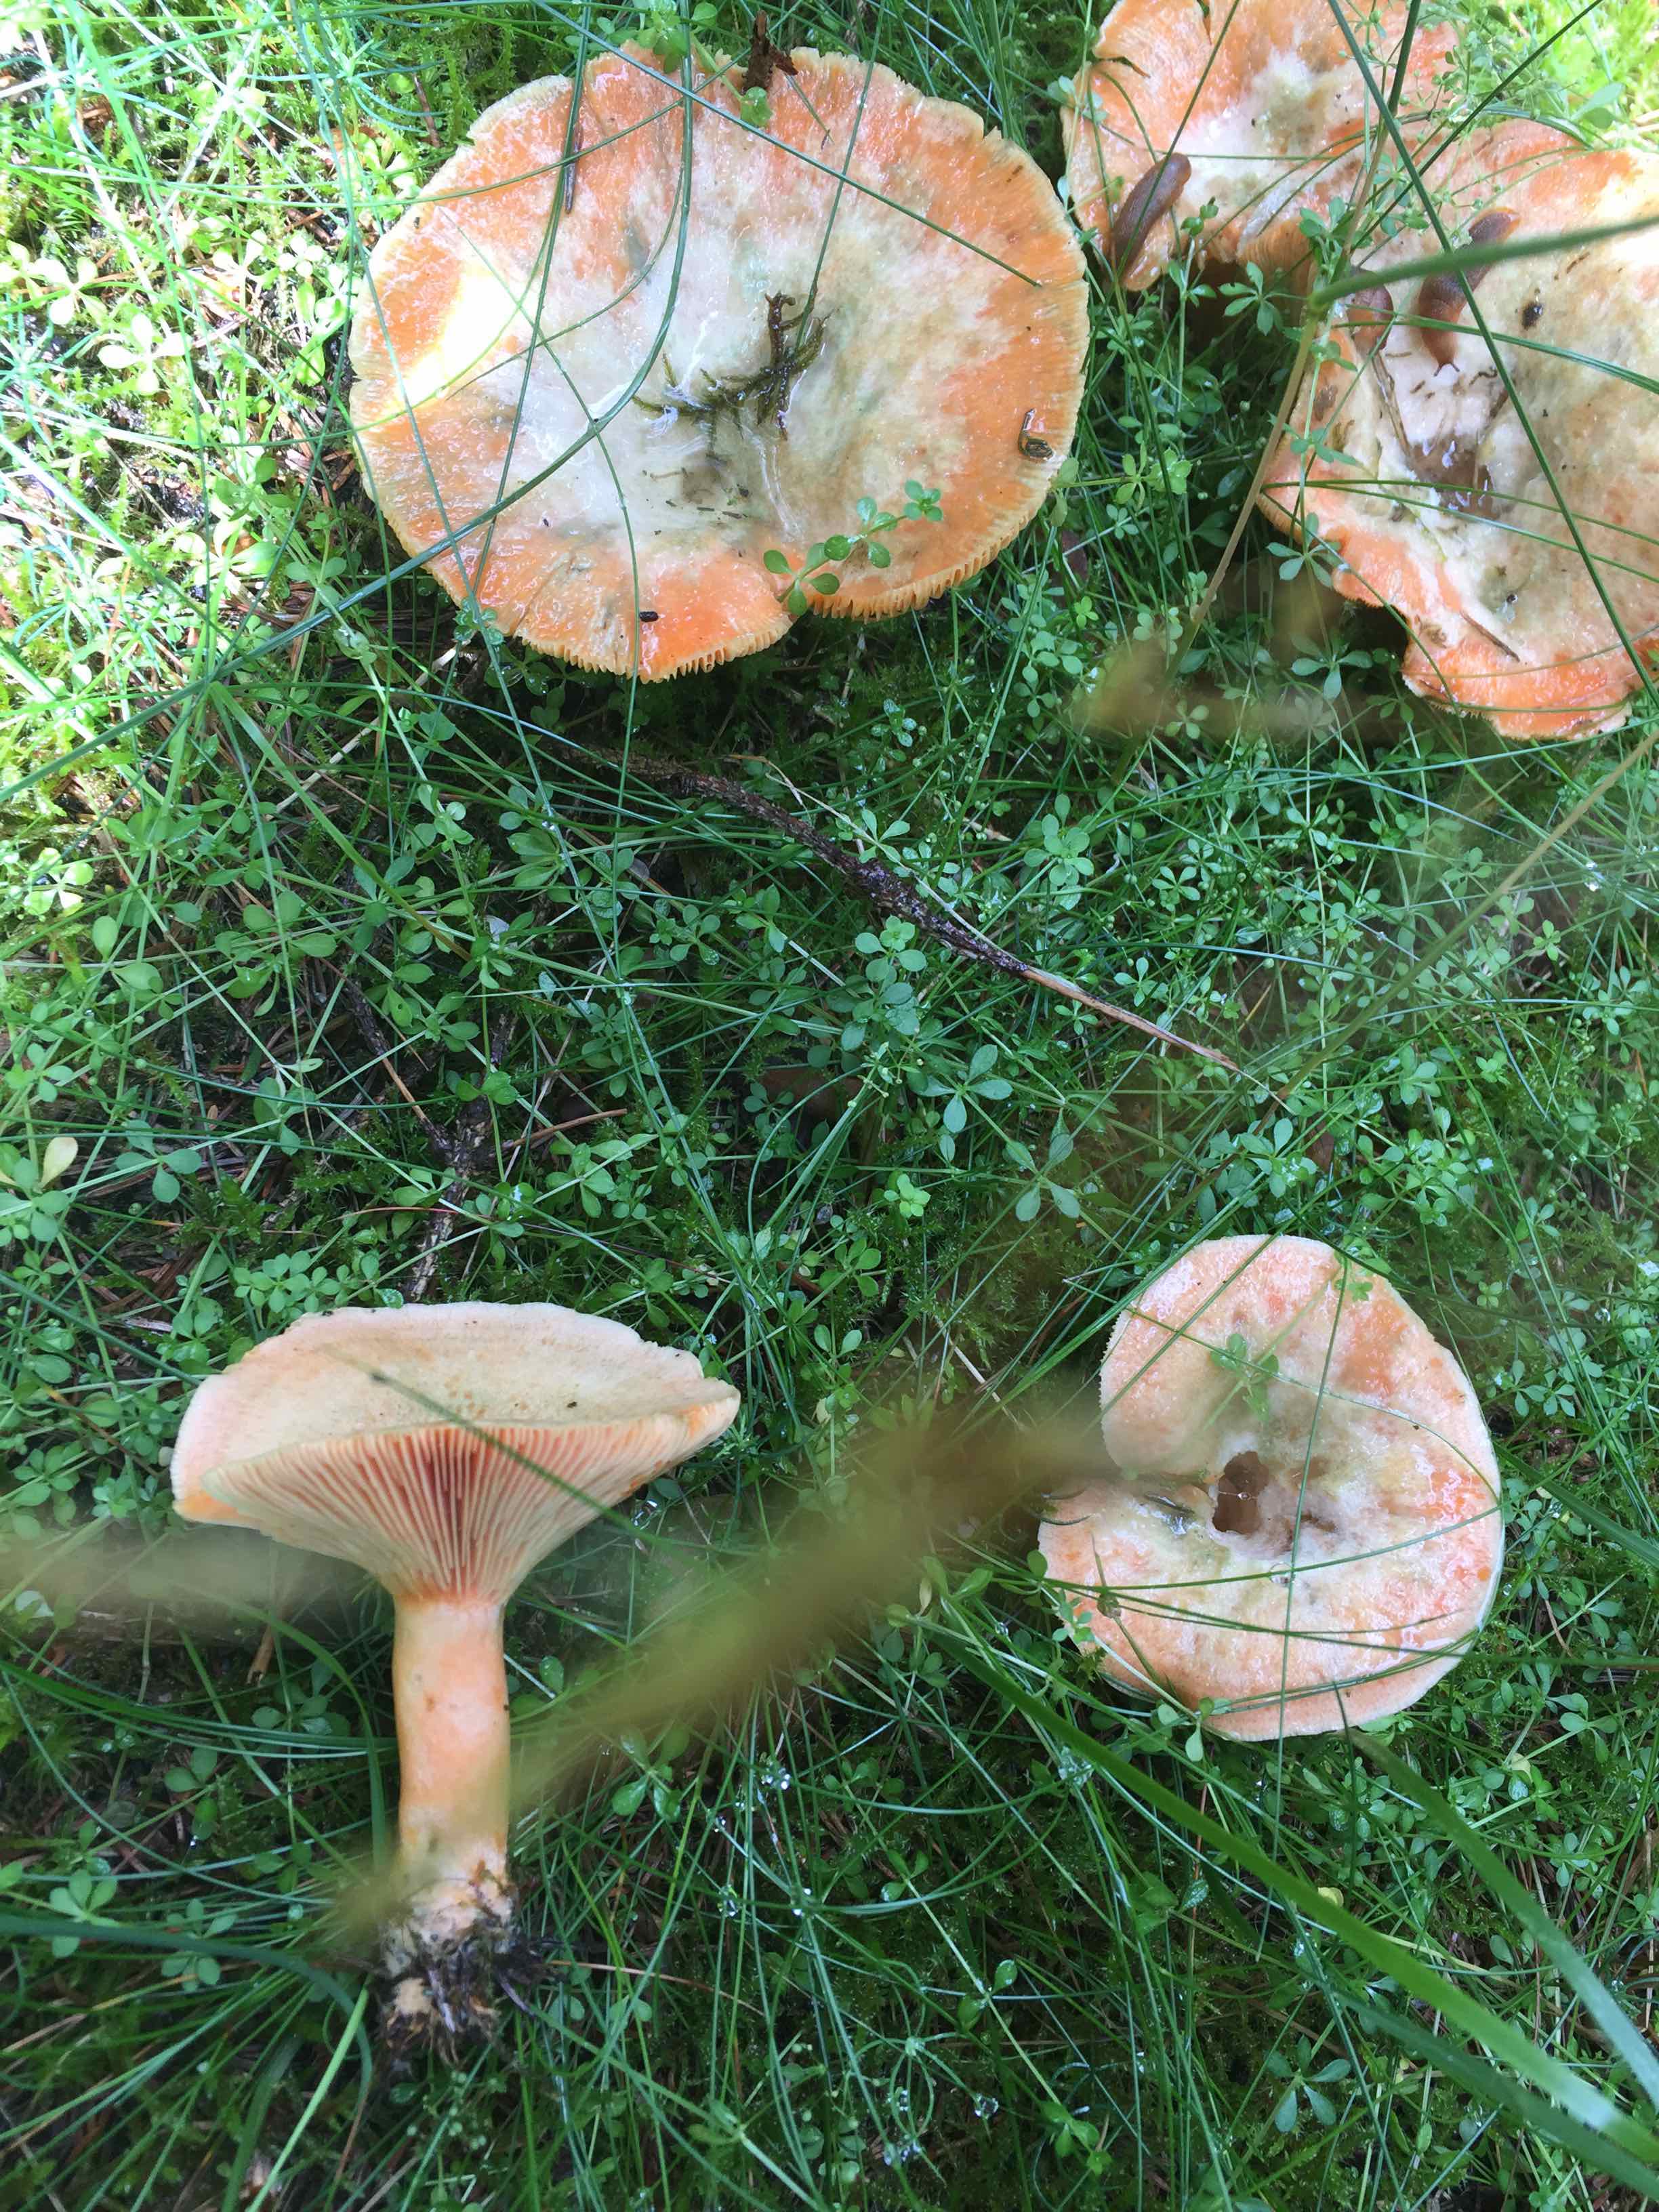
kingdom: Fungi
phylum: Basidiomycota
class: Agaricomycetes
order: Russulales
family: Russulaceae
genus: Lactarius
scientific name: Lactarius deterrimus
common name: gran-mælkehat
